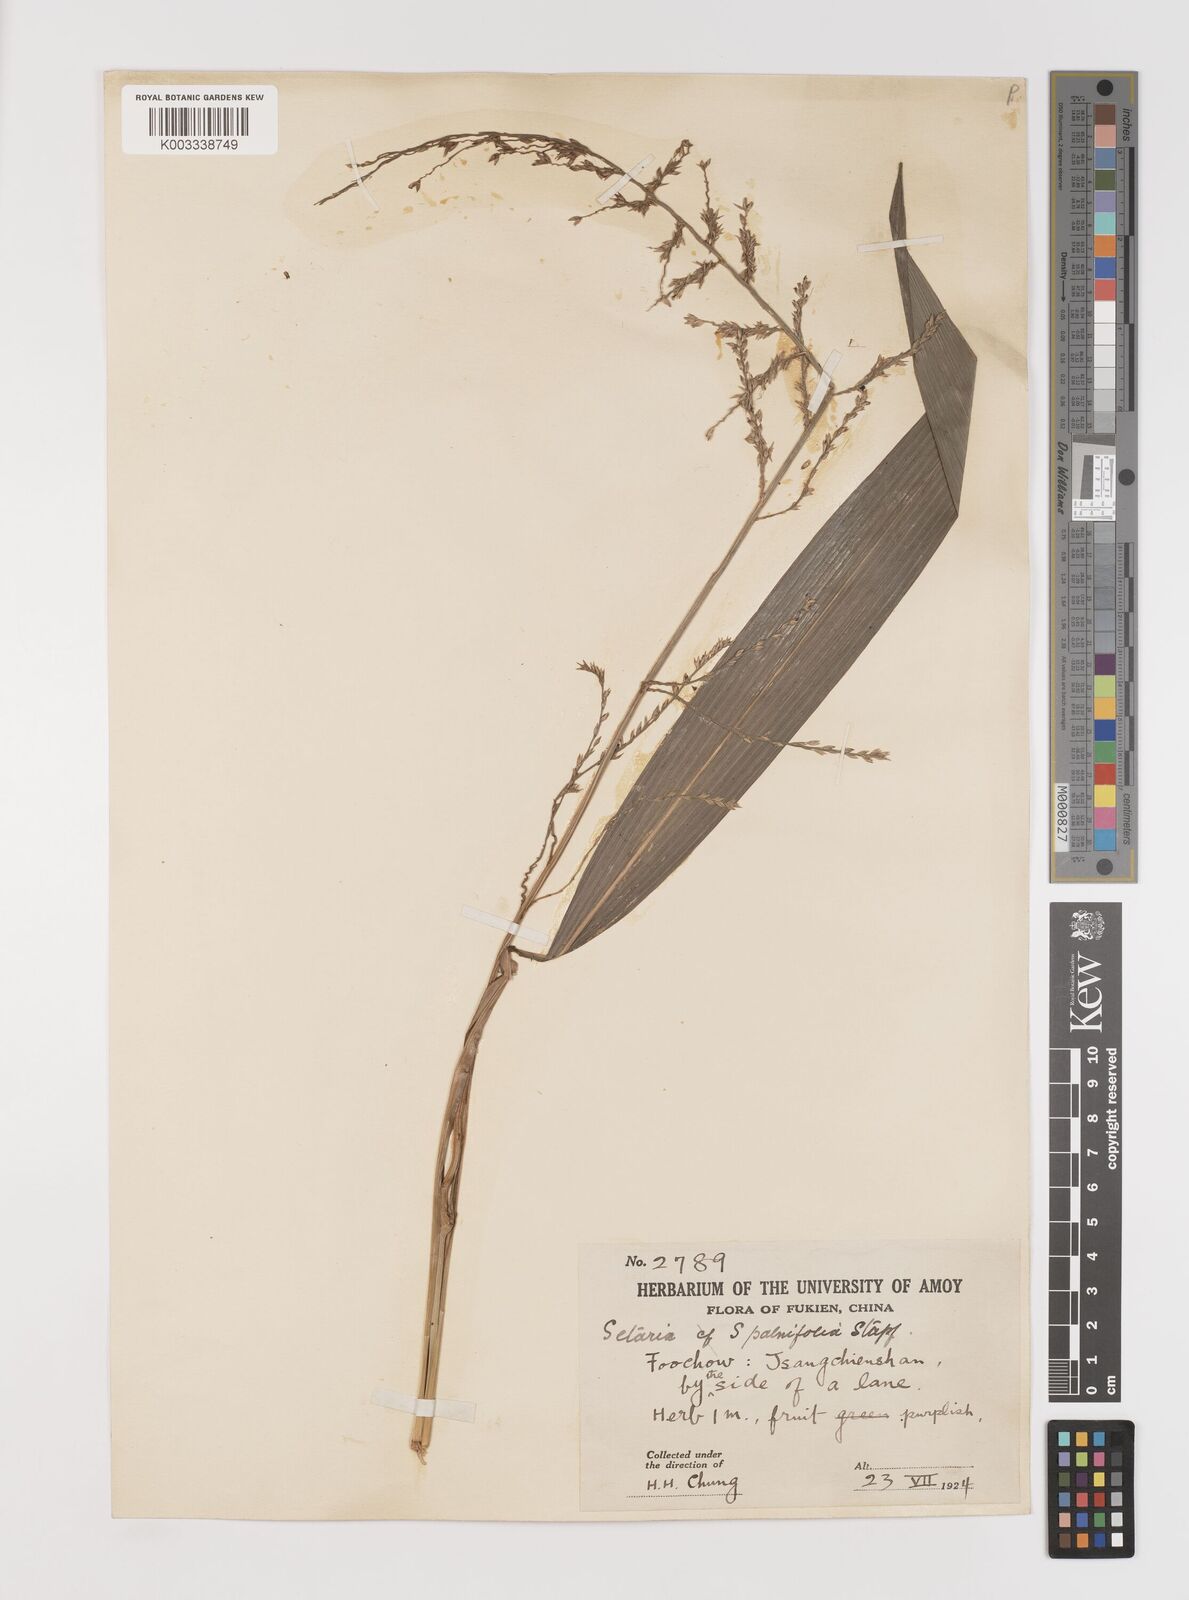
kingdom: Plantae
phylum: Tracheophyta
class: Liliopsida
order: Poales
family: Poaceae
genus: Setaria
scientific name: Setaria plicata
